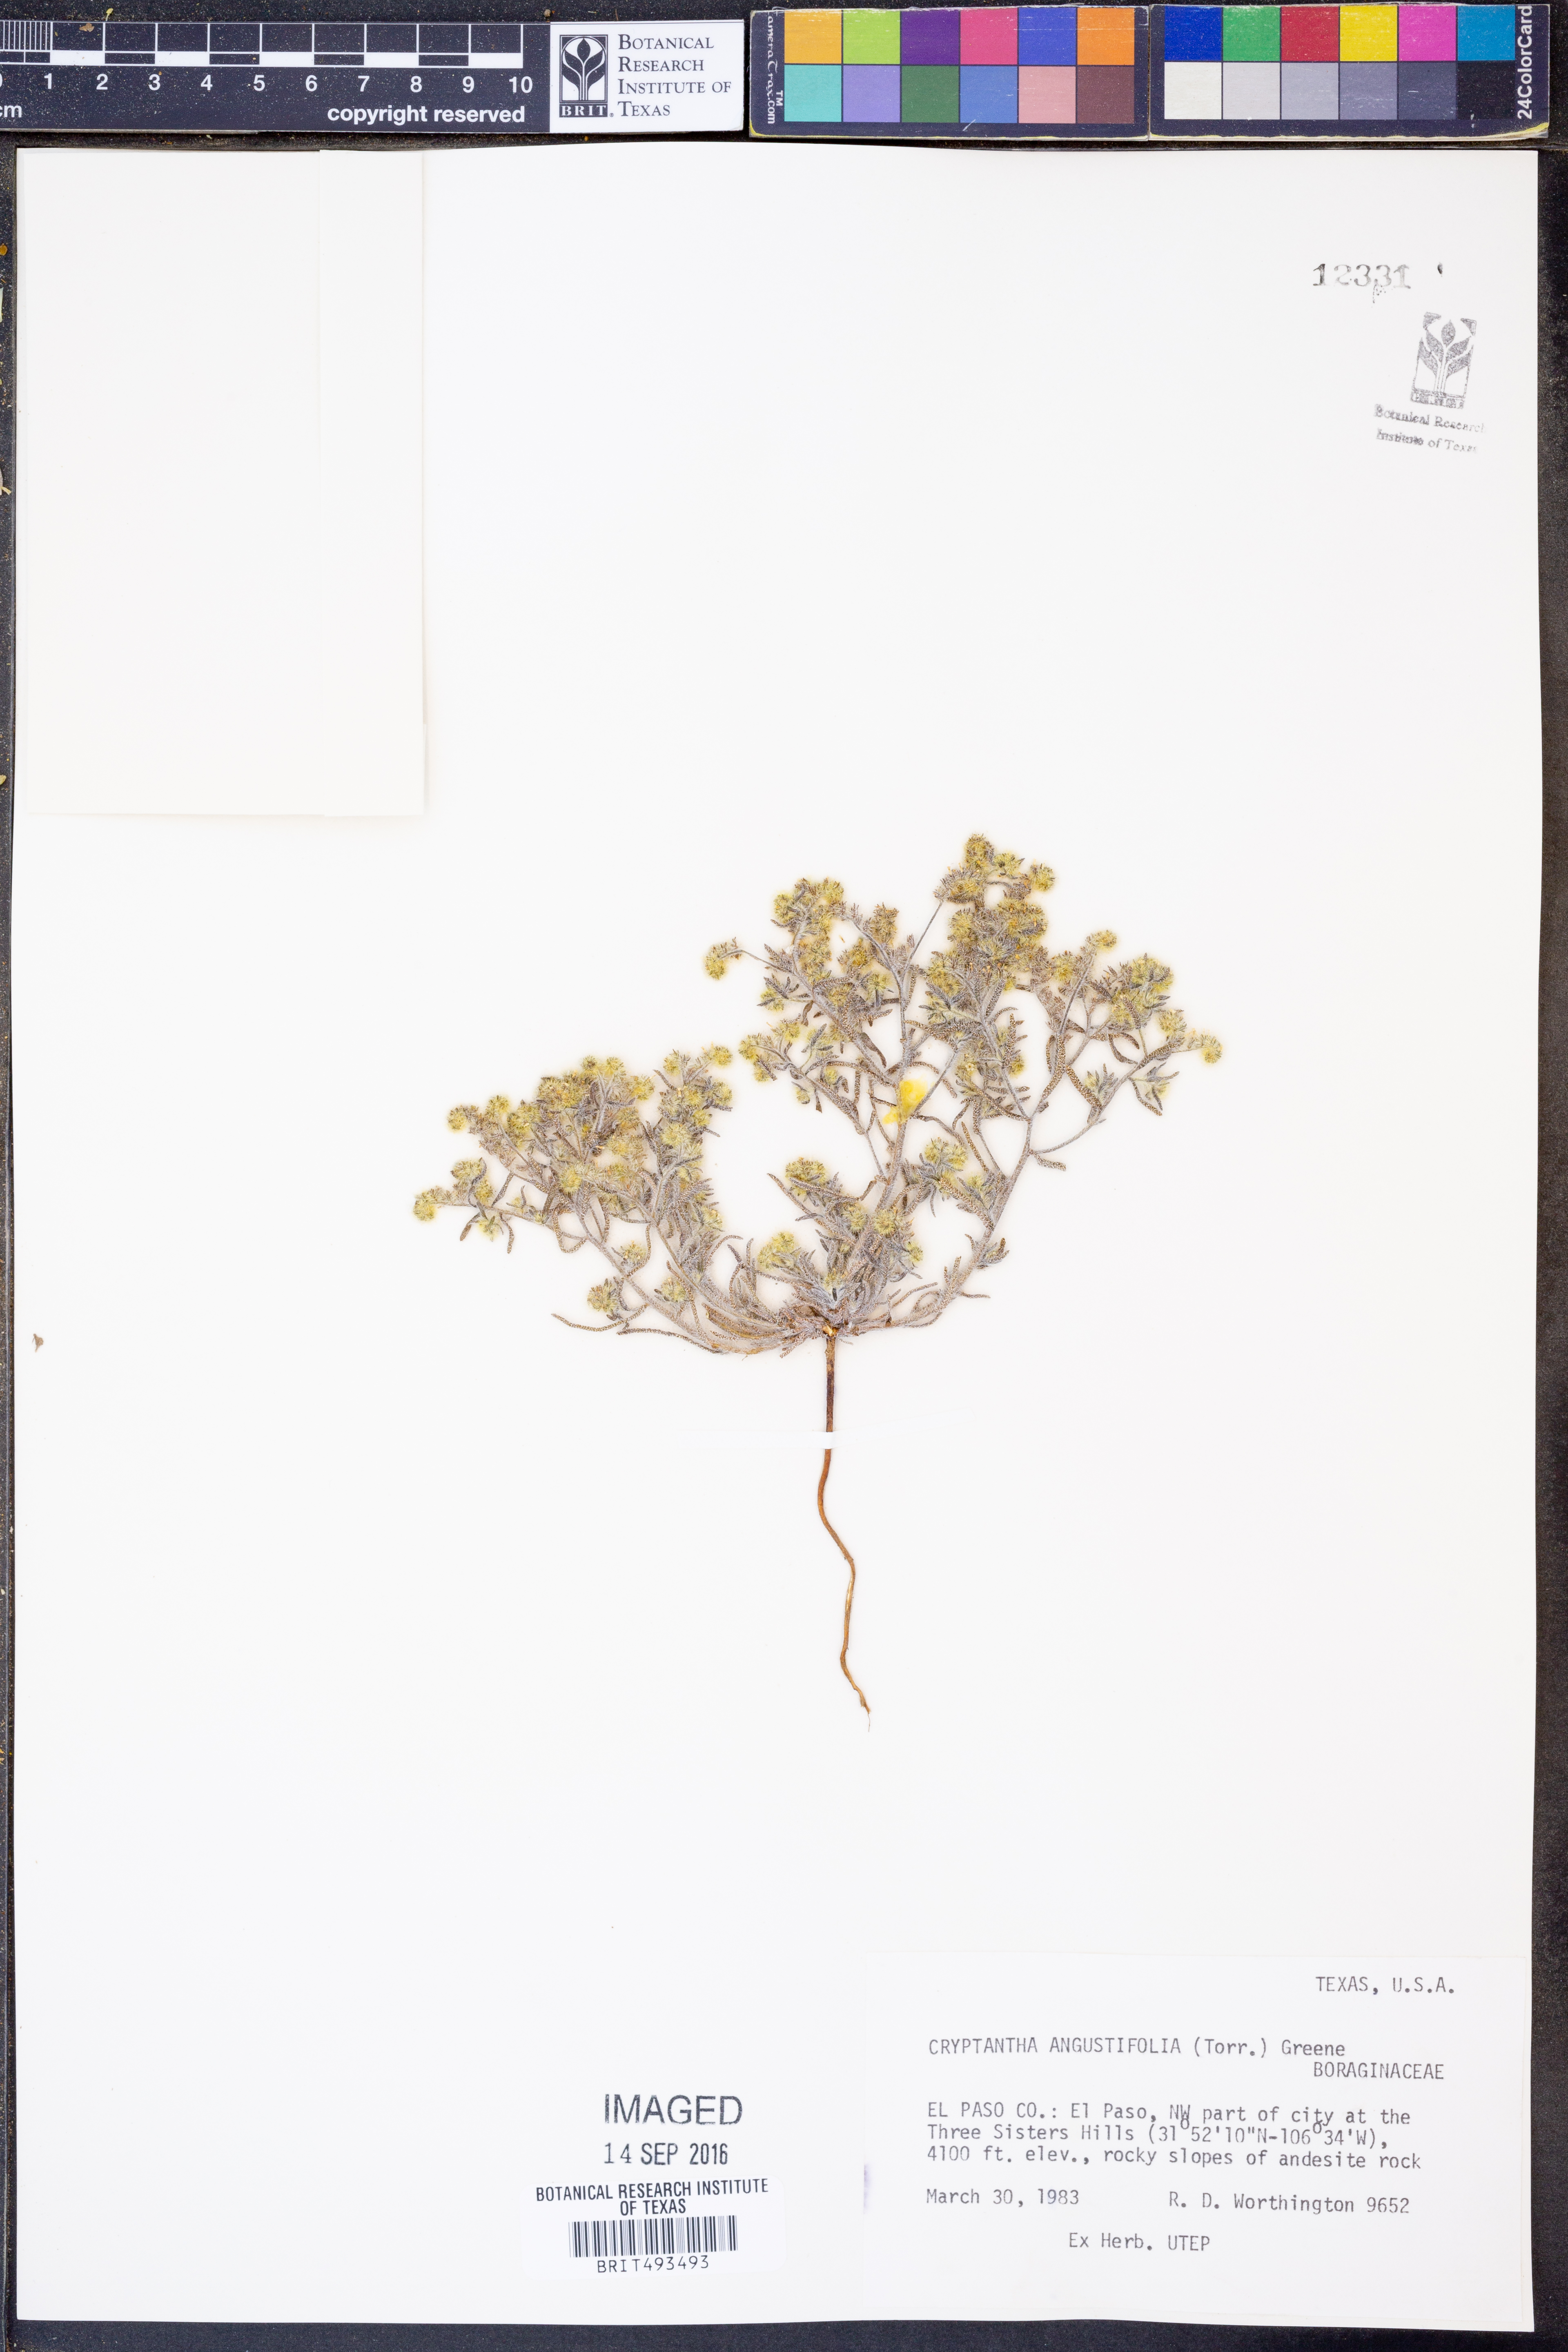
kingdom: Plantae
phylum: Tracheophyta
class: Magnoliopsida
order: Boraginales
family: Boraginaceae
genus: Johnstonella
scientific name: Johnstonella angustifolia
